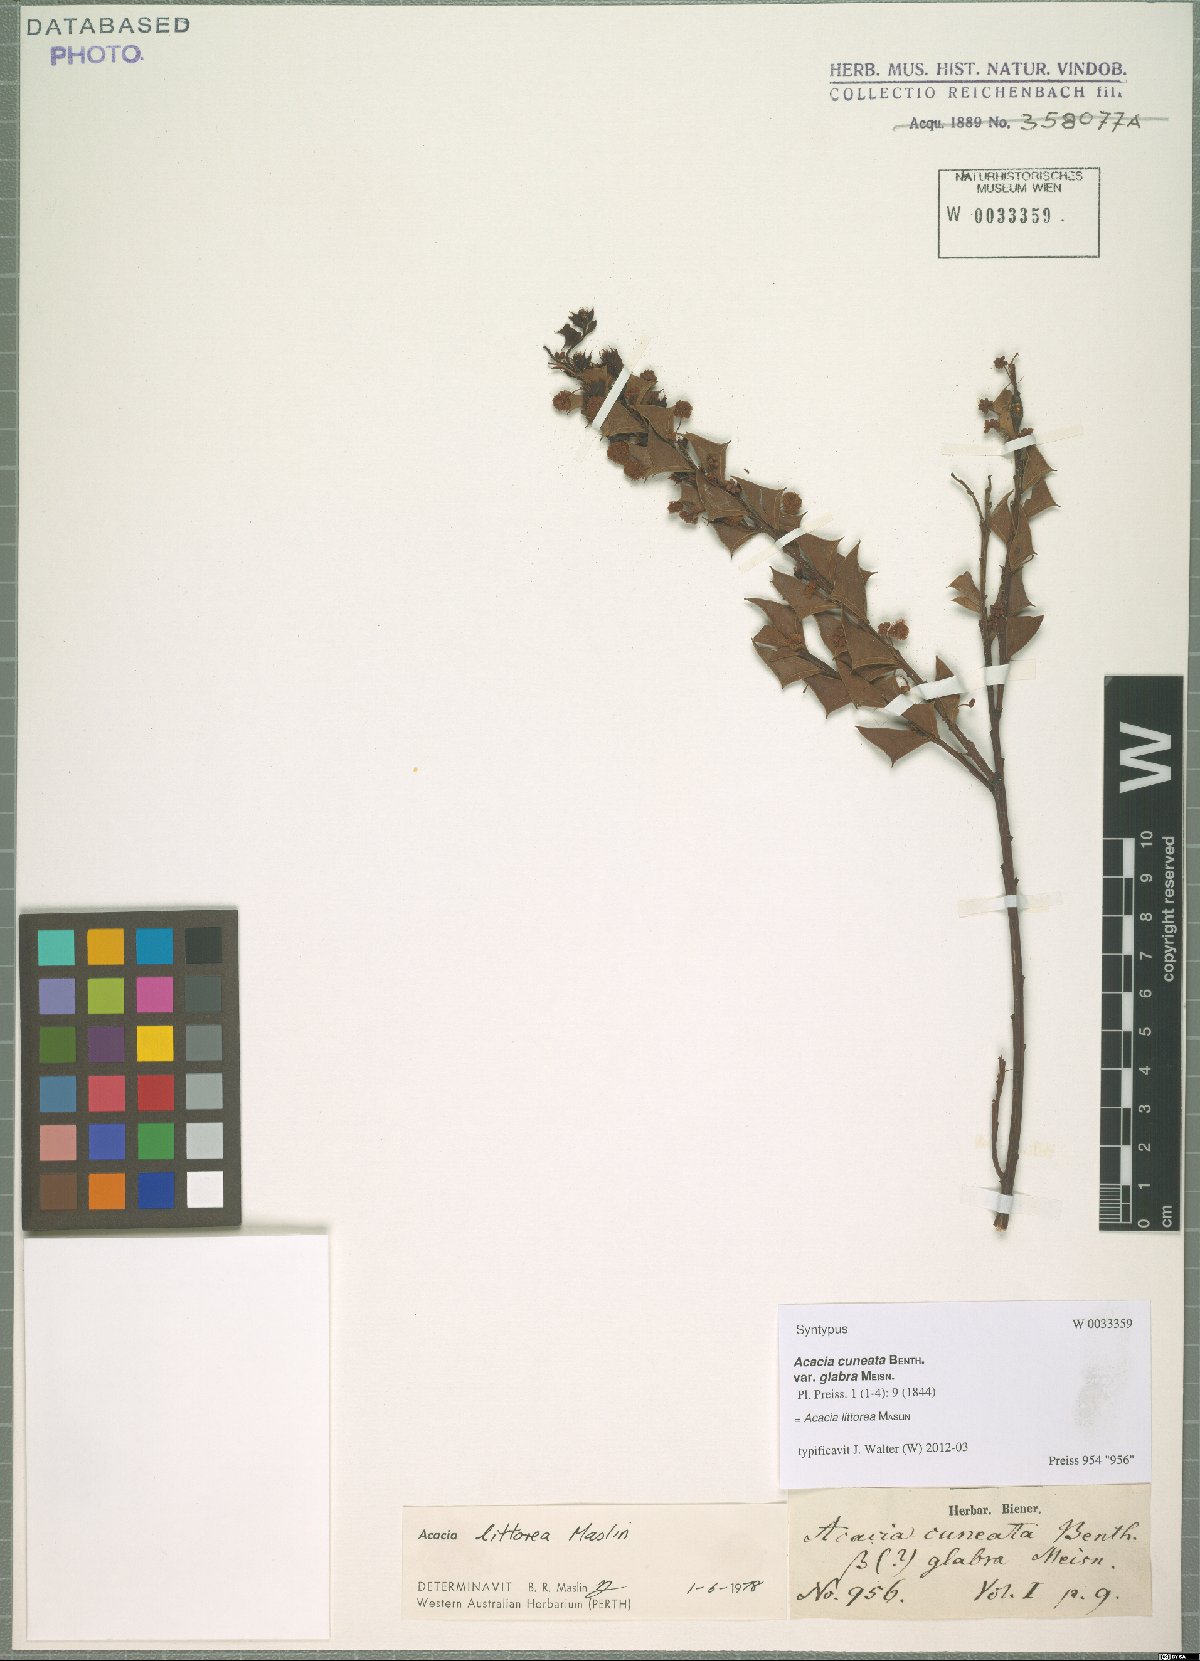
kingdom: Plantae
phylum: Tracheophyta
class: Magnoliopsida
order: Fabales
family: Fabaceae
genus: Acacia
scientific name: Acacia trapezoidea
